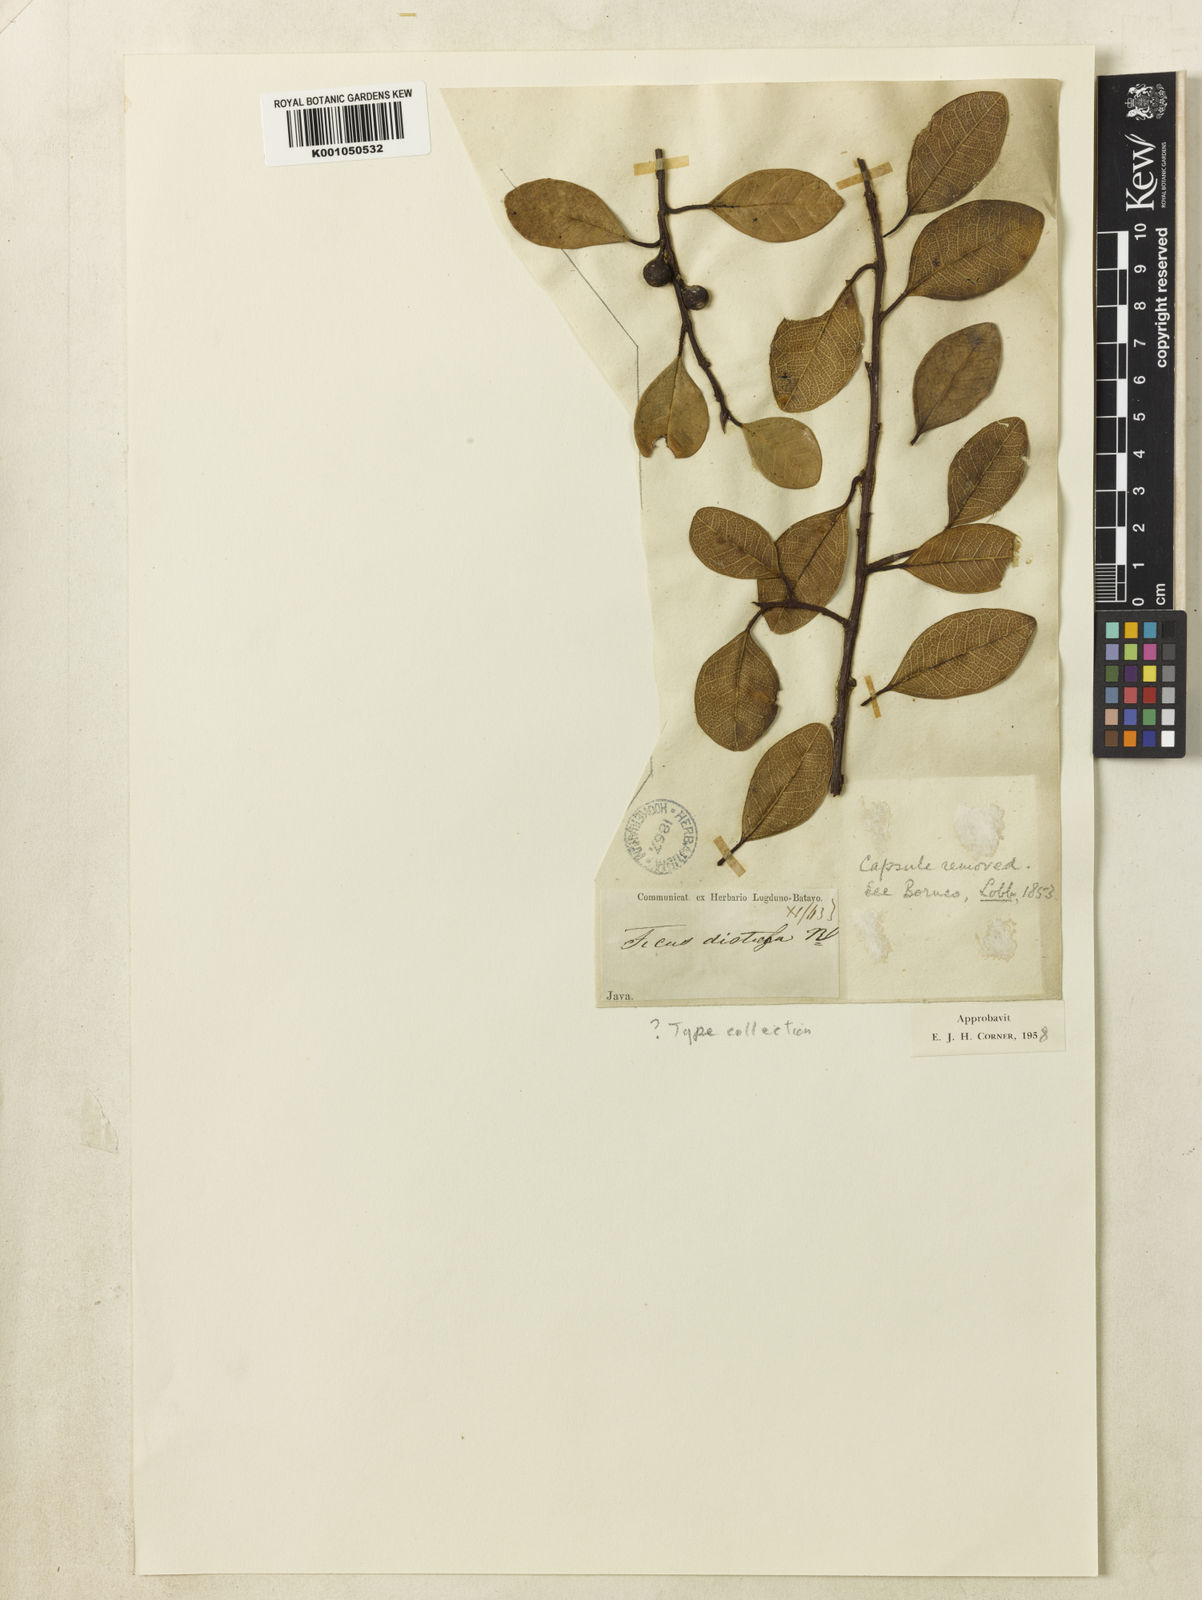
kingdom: Plantae
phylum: Tracheophyta
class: Magnoliopsida
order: Rosales
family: Moraceae
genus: Ficus
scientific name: Ficus disticha
